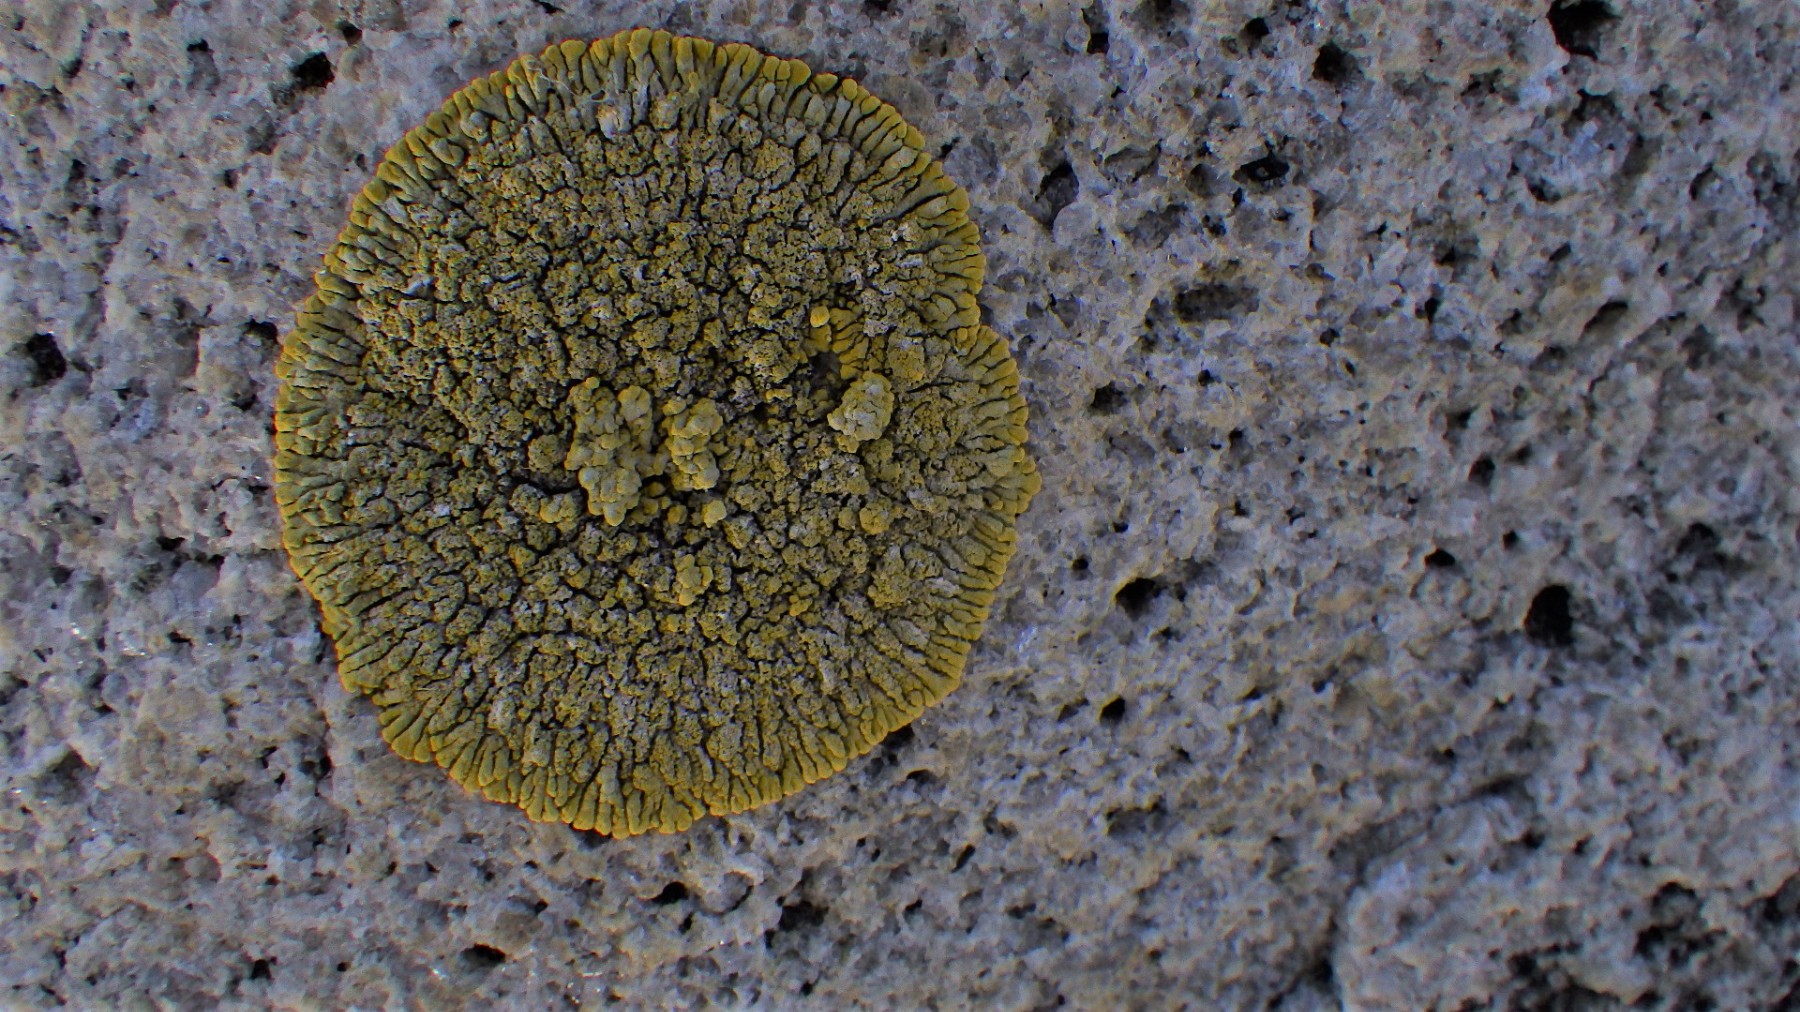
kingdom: Fungi
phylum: Ascomycota
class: Lecanoromycetes
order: Teloschistales
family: Teloschistaceae
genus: Verrucoplaca
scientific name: Verrucoplaca verruculifera
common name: koldkyst-orangelav
